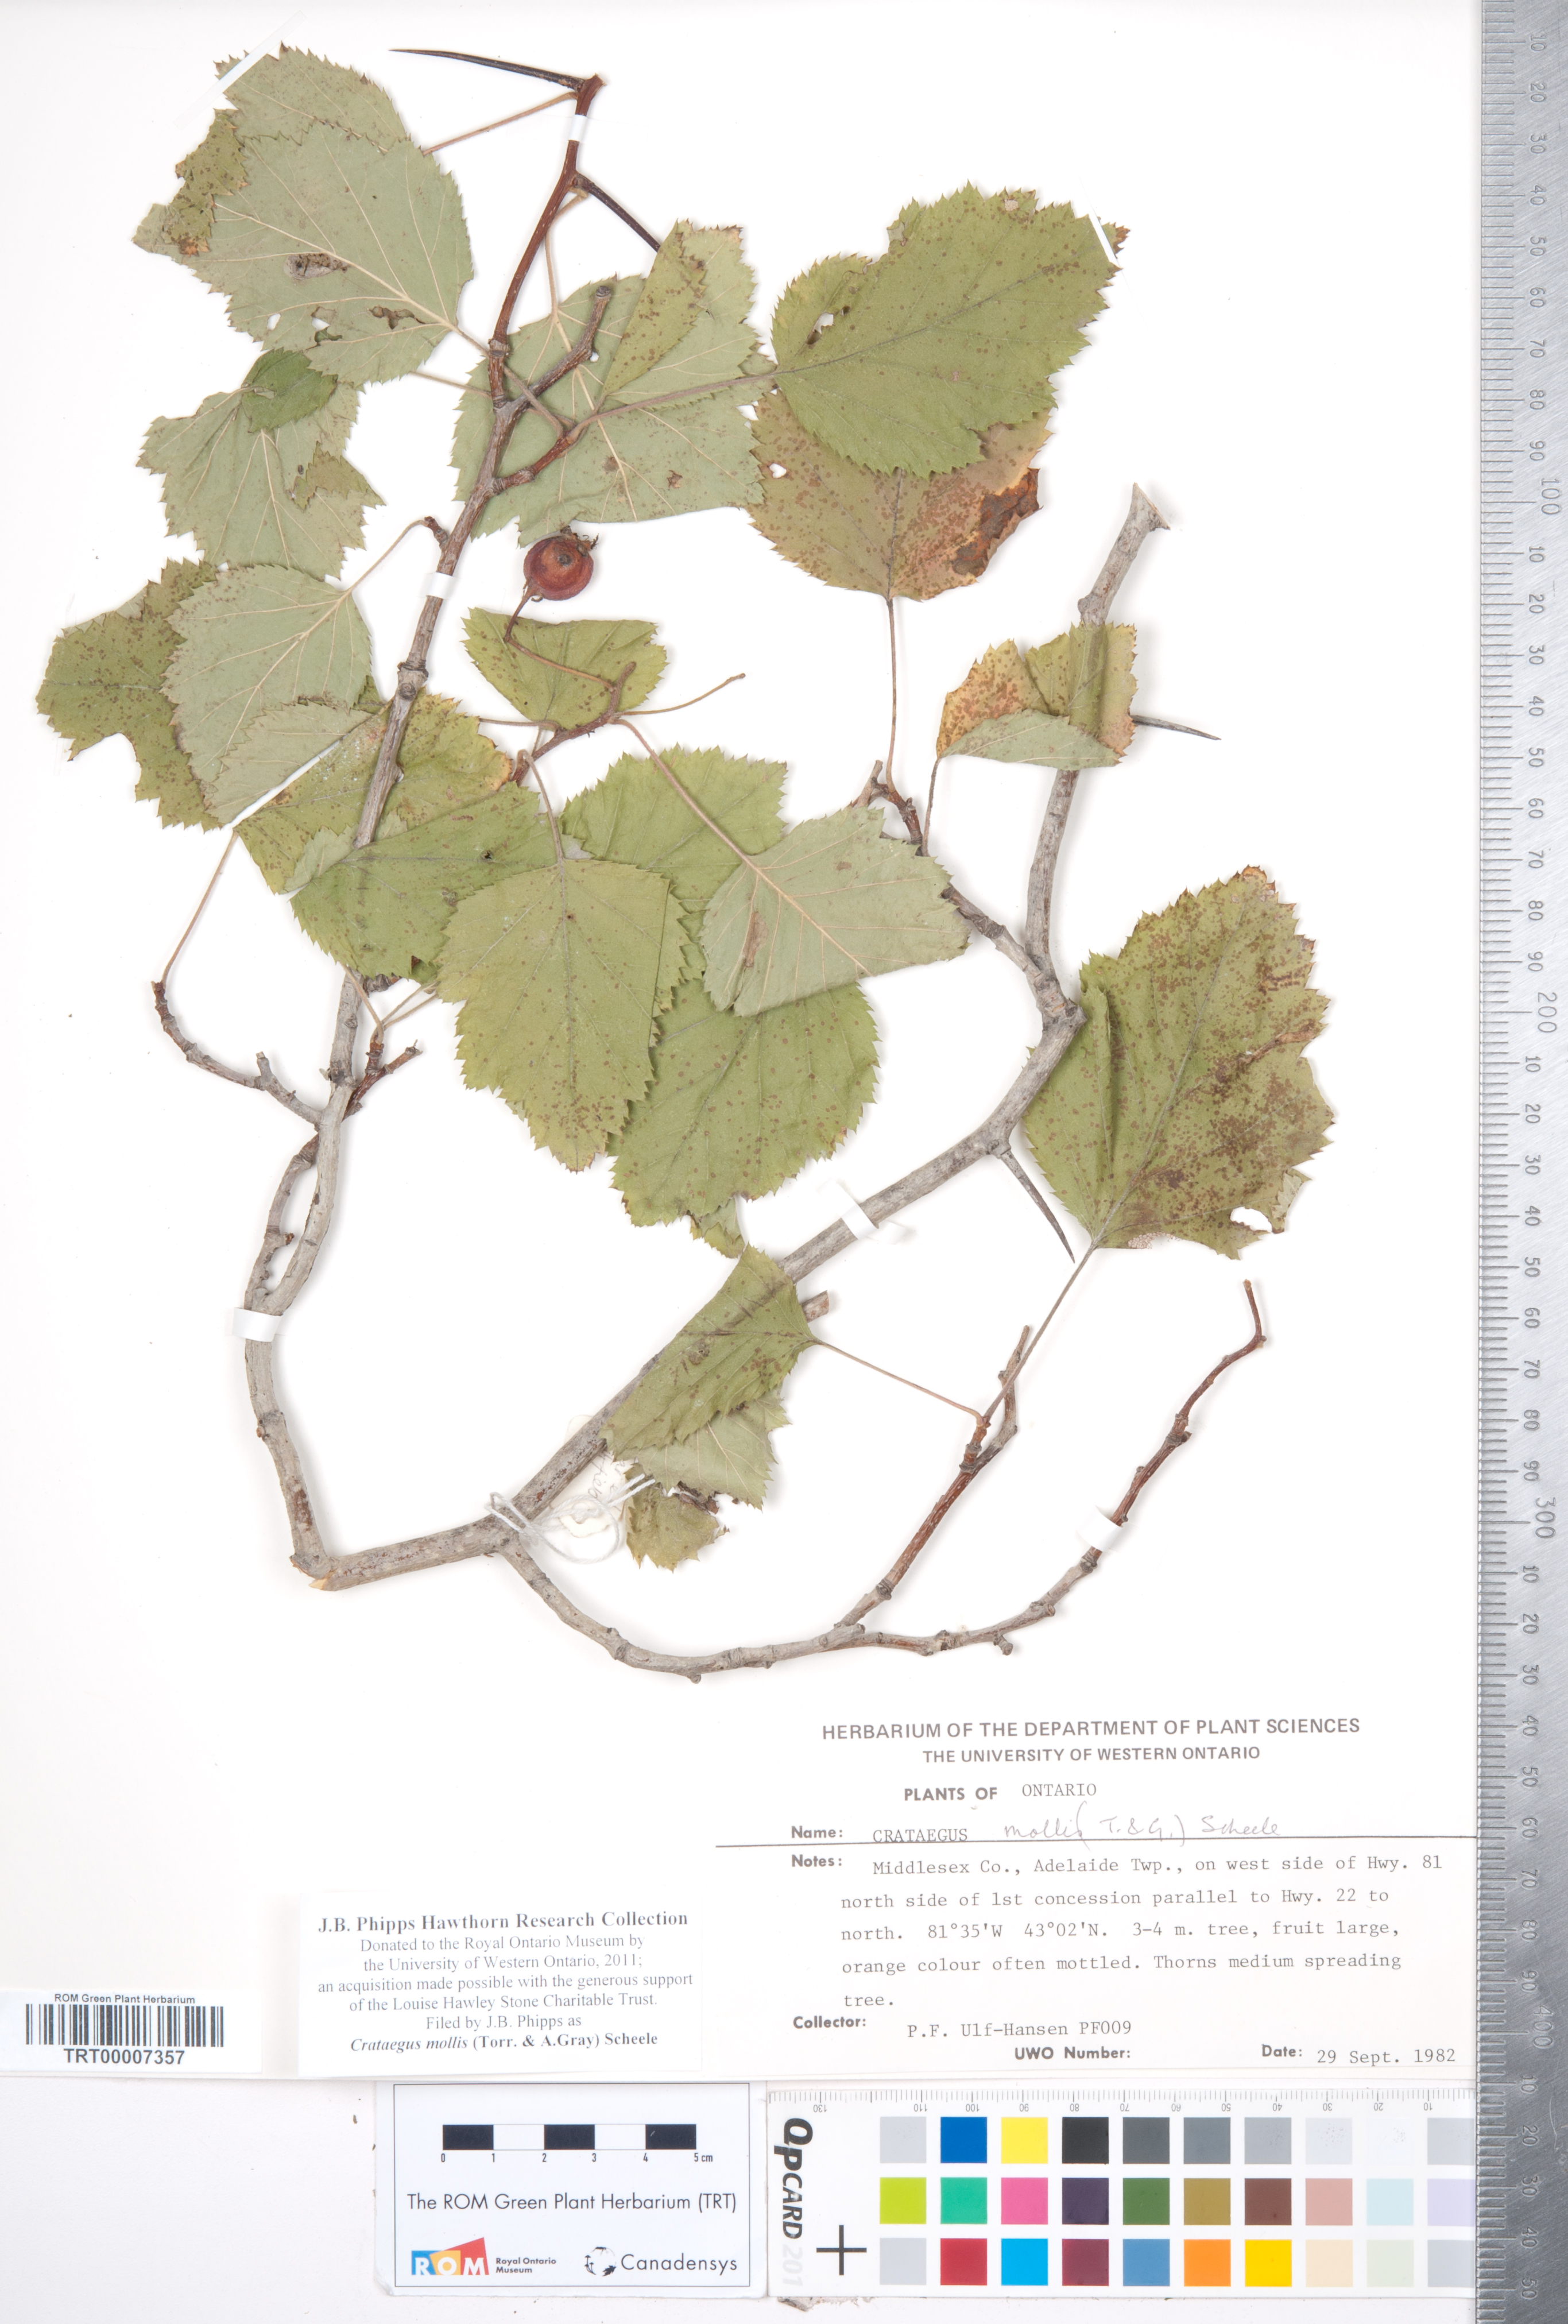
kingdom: Plantae
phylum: Tracheophyta
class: Magnoliopsida
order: Rosales
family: Rosaceae
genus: Crataegus
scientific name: Crataegus mollis
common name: Downy hawthorn
